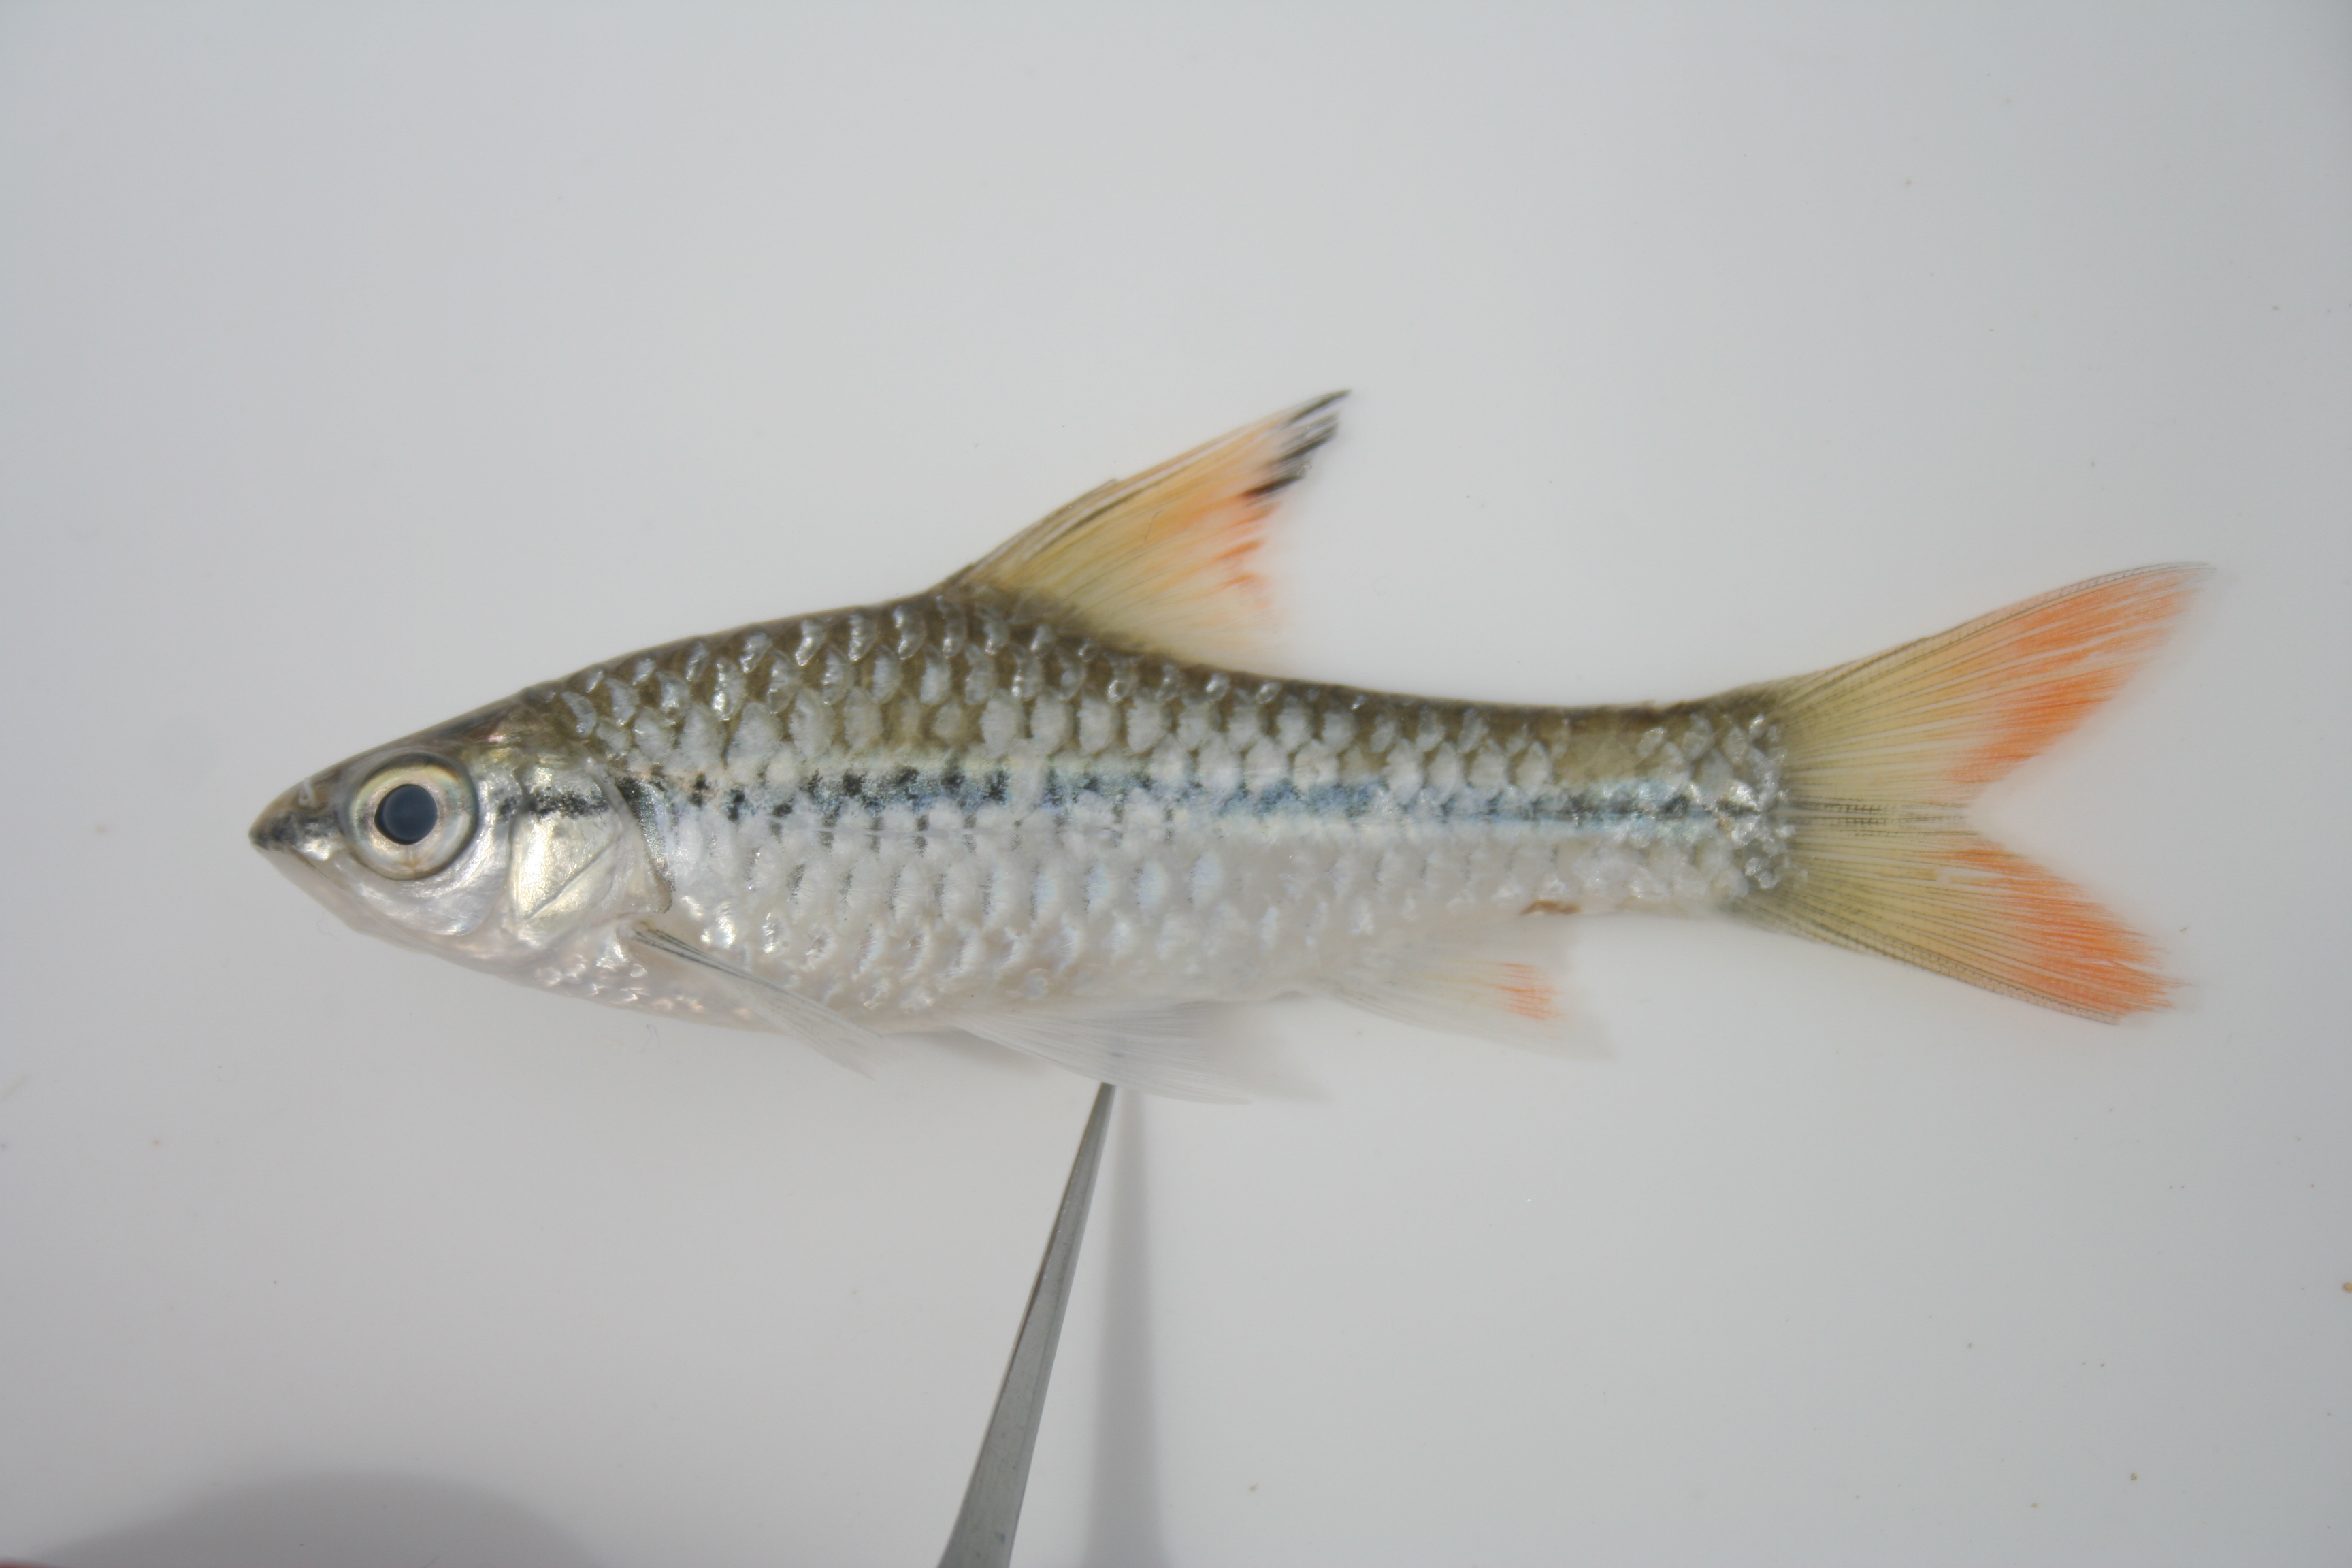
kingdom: Animalia
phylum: Chordata
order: Cypriniformes
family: Cyprinidae
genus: Enteromius
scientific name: Enteromius holotaenia
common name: Spotscale barb
